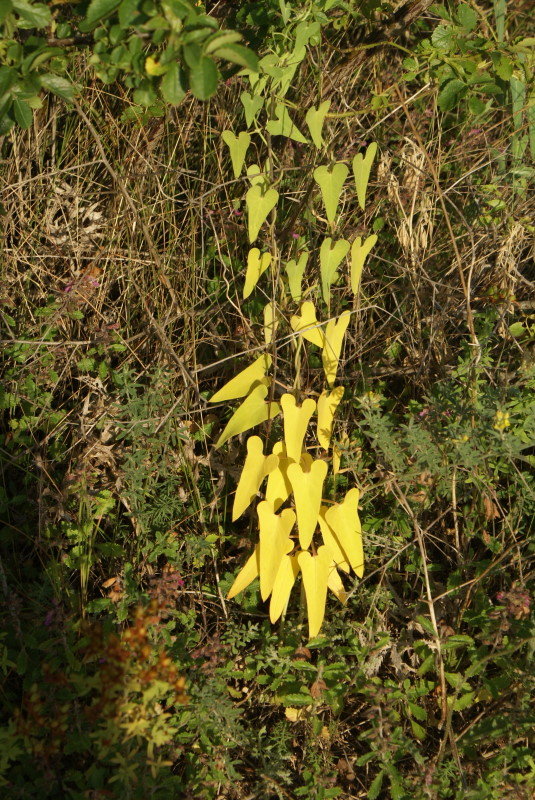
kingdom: Plantae
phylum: Tracheophyta
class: Magnoliopsida
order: Gentianales
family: Apocynaceae
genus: Cynanchum
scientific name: Cynanchum acutum
